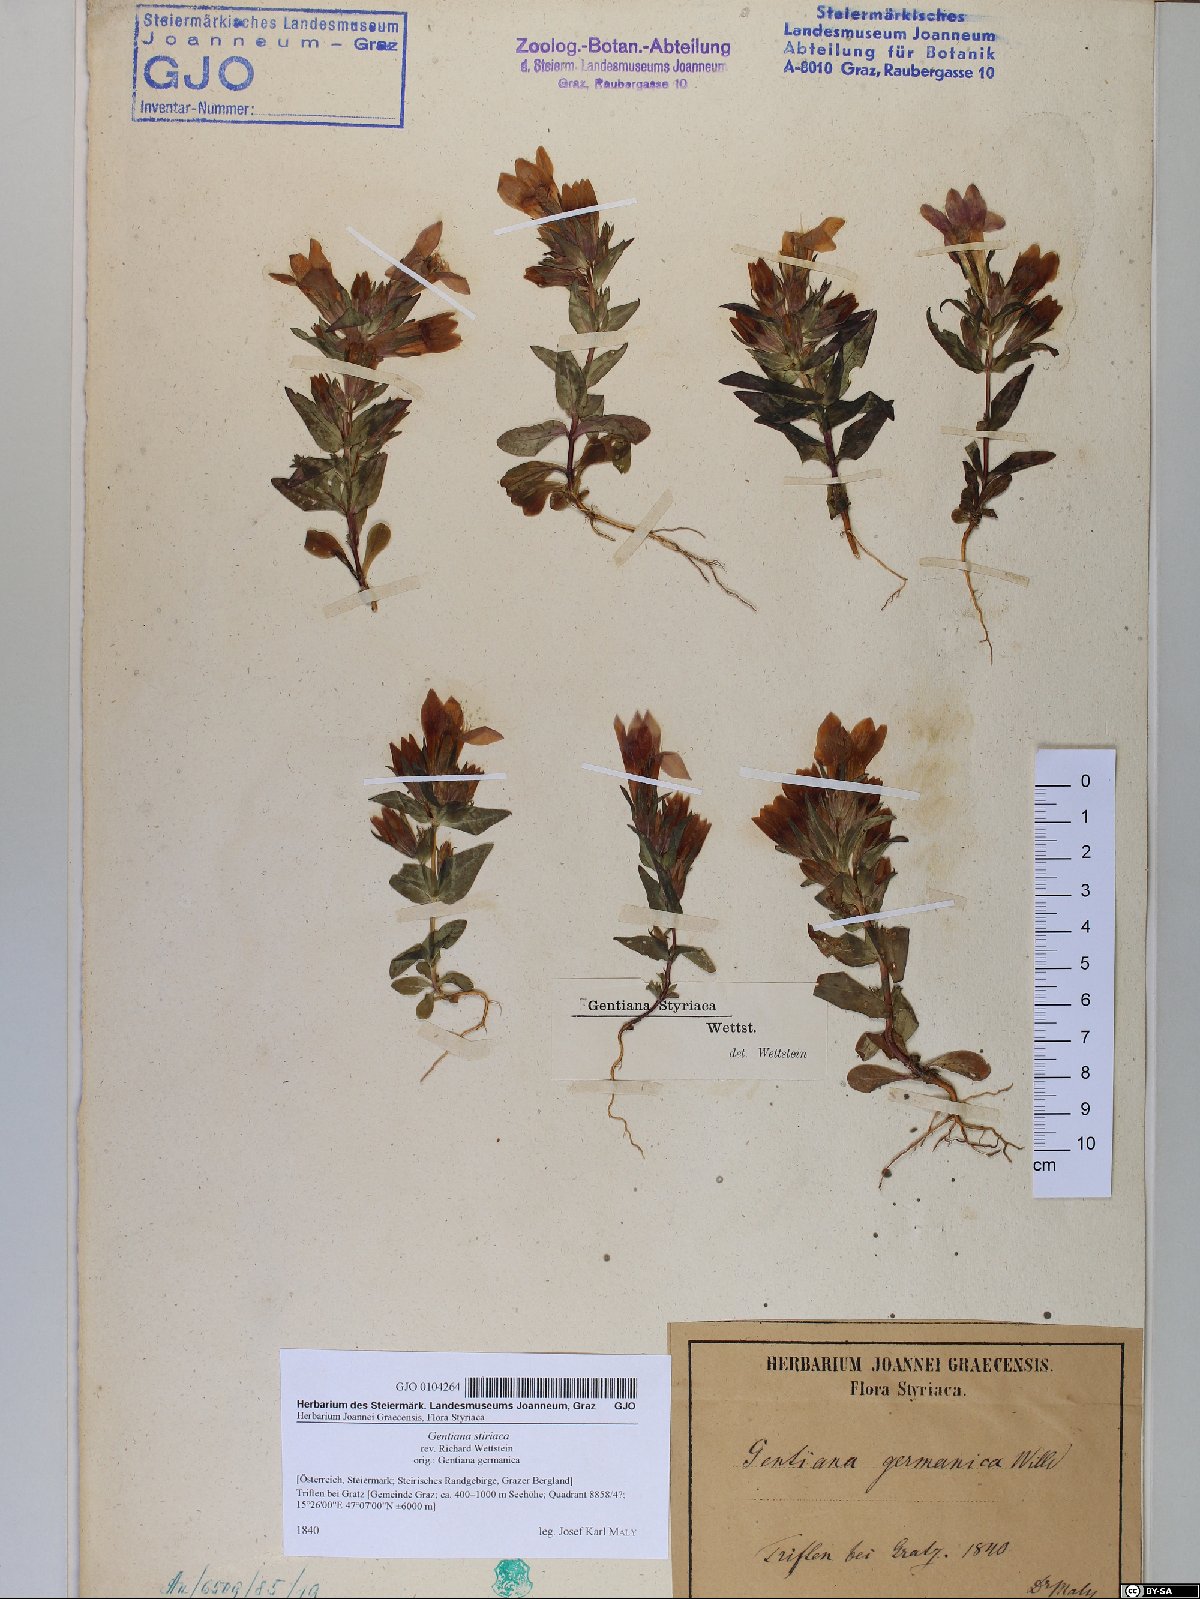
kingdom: Plantae
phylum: Tracheophyta
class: Magnoliopsida
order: Gentianales
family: Gentianaceae
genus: Gentianella
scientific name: Gentianella rhaetica
